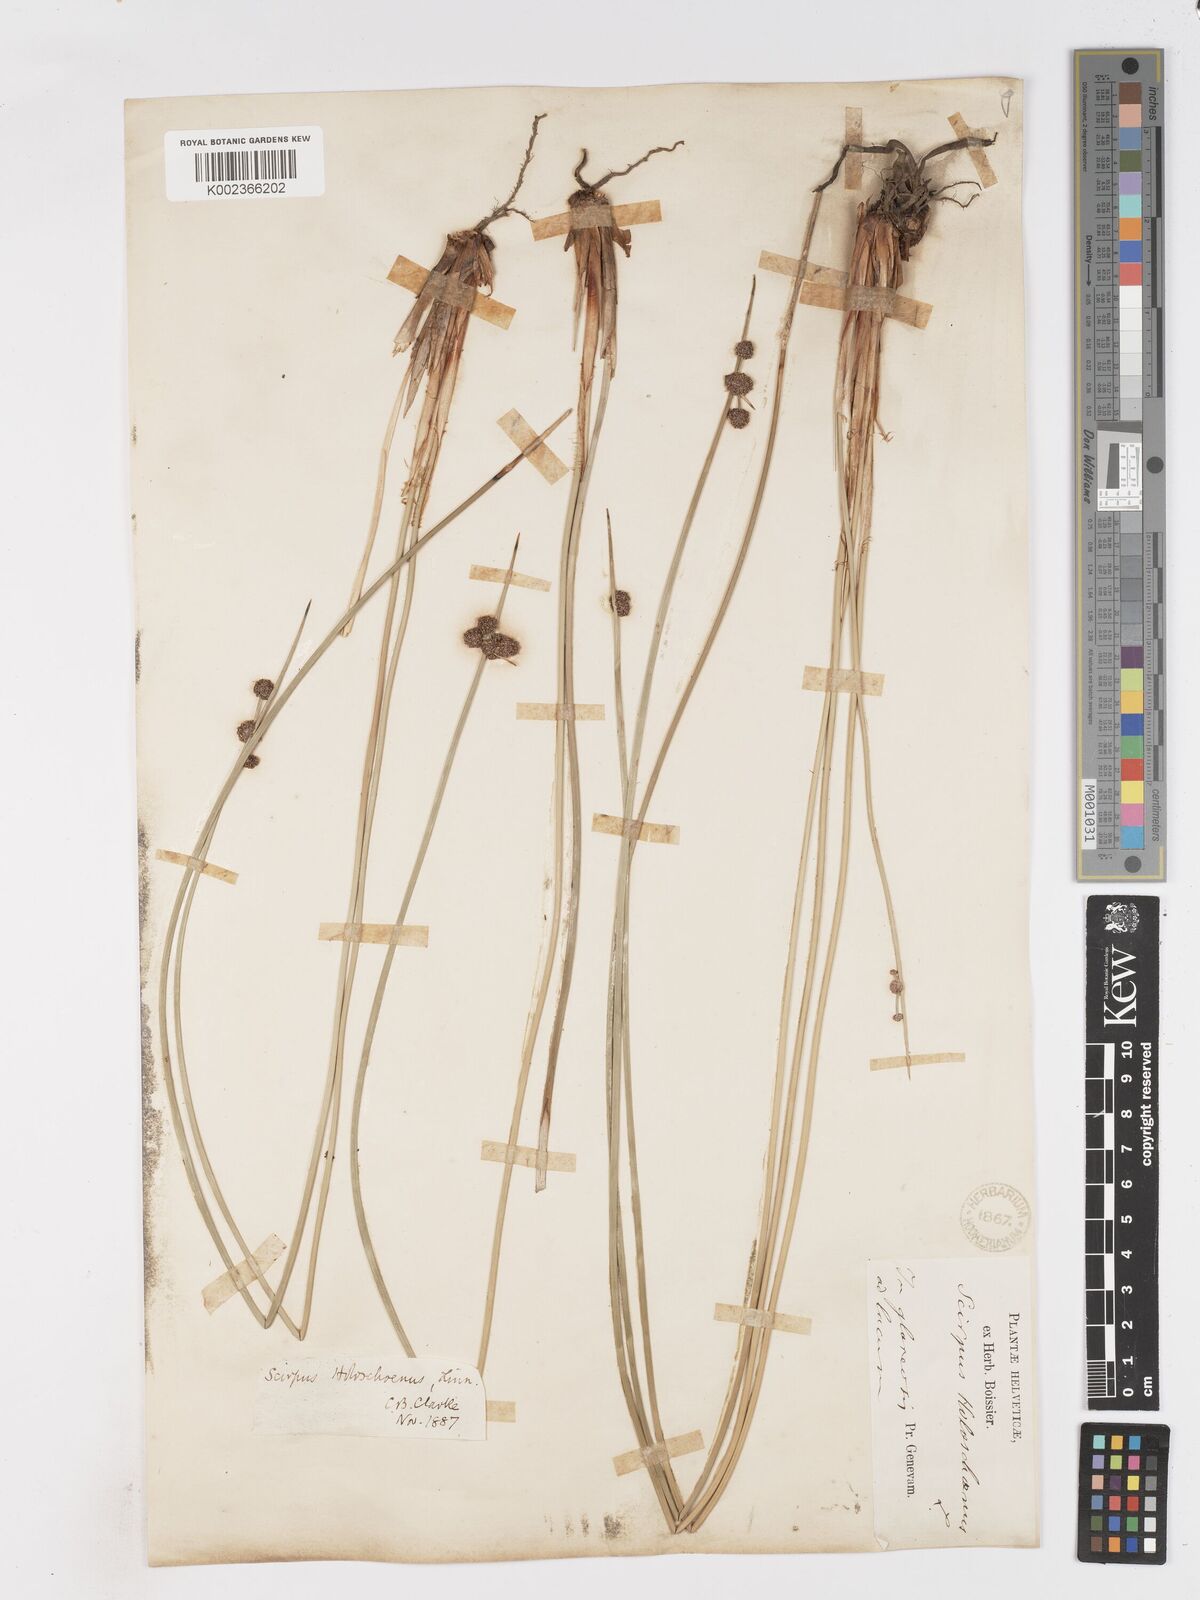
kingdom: Plantae
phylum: Tracheophyta
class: Liliopsida
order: Poales
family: Cyperaceae
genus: Scirpoides
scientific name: Scirpoides holoschoenus
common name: Round-headed club-rush
